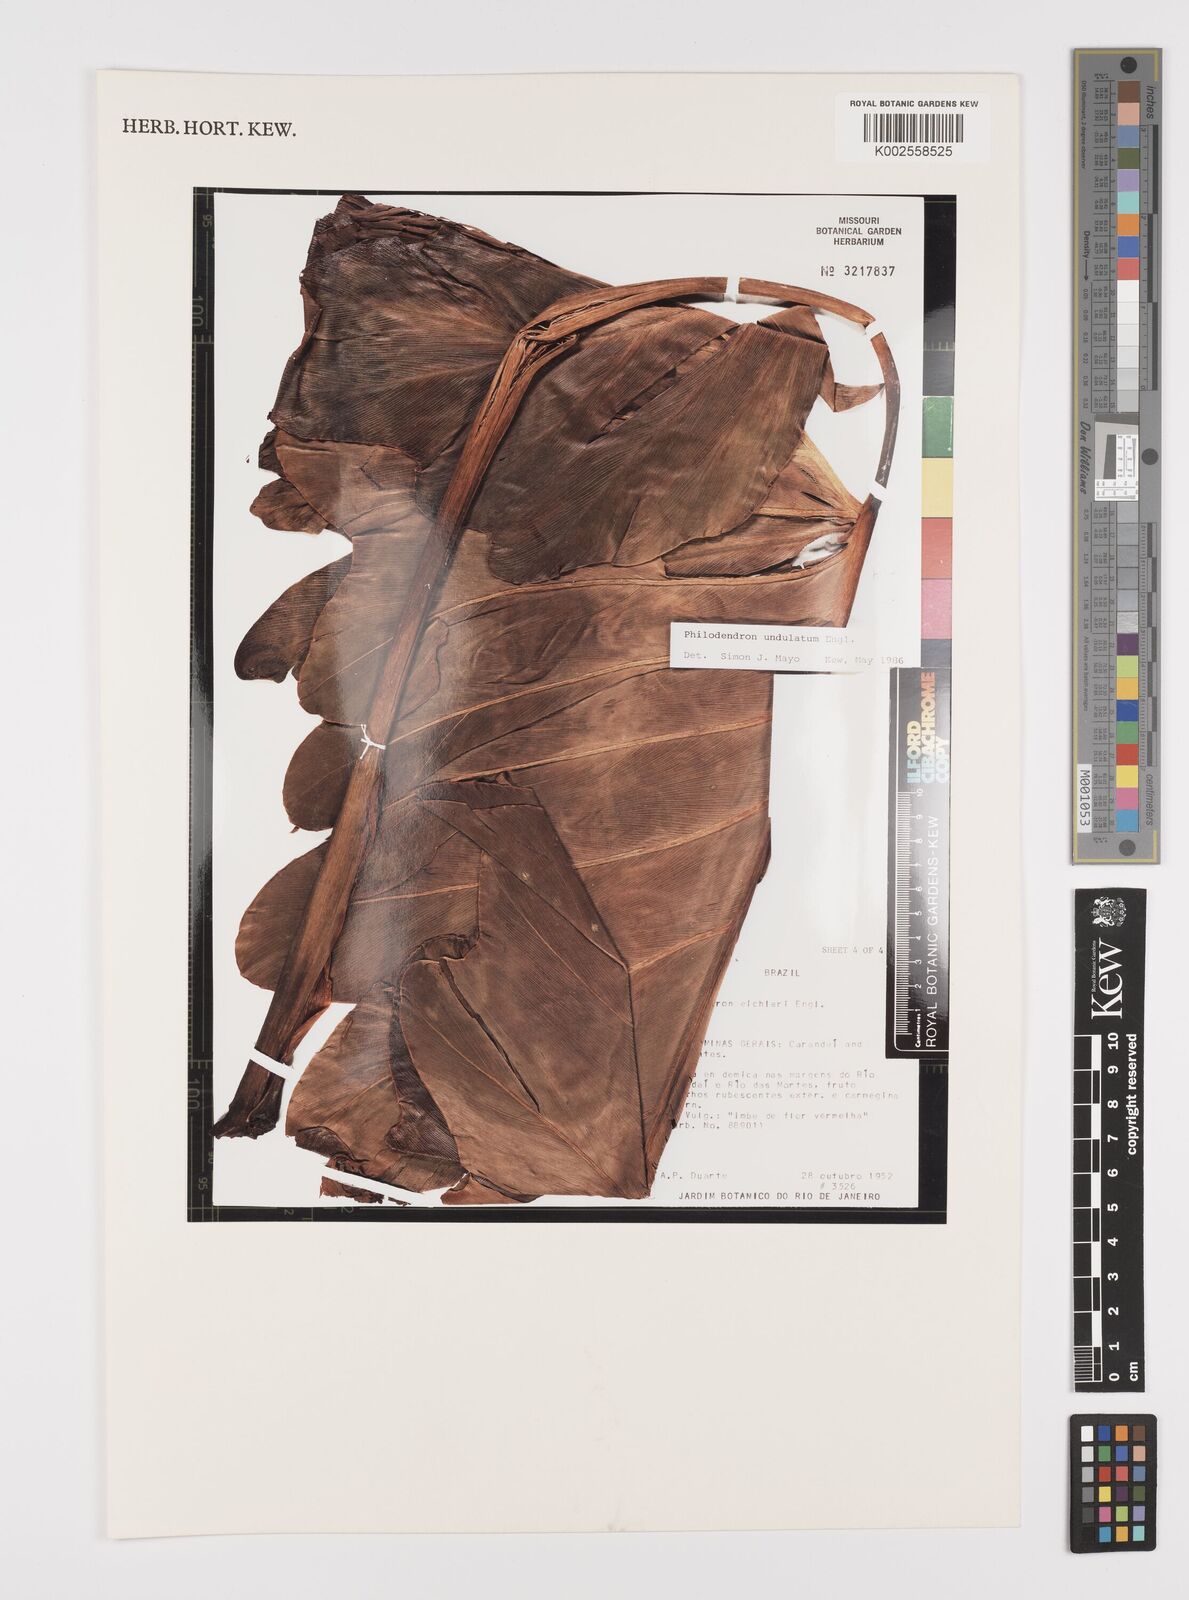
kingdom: Plantae
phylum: Tracheophyta
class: Liliopsida
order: Alismatales
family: Araceae
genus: Thaumatophyllum
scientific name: Thaumatophyllum undulatum
